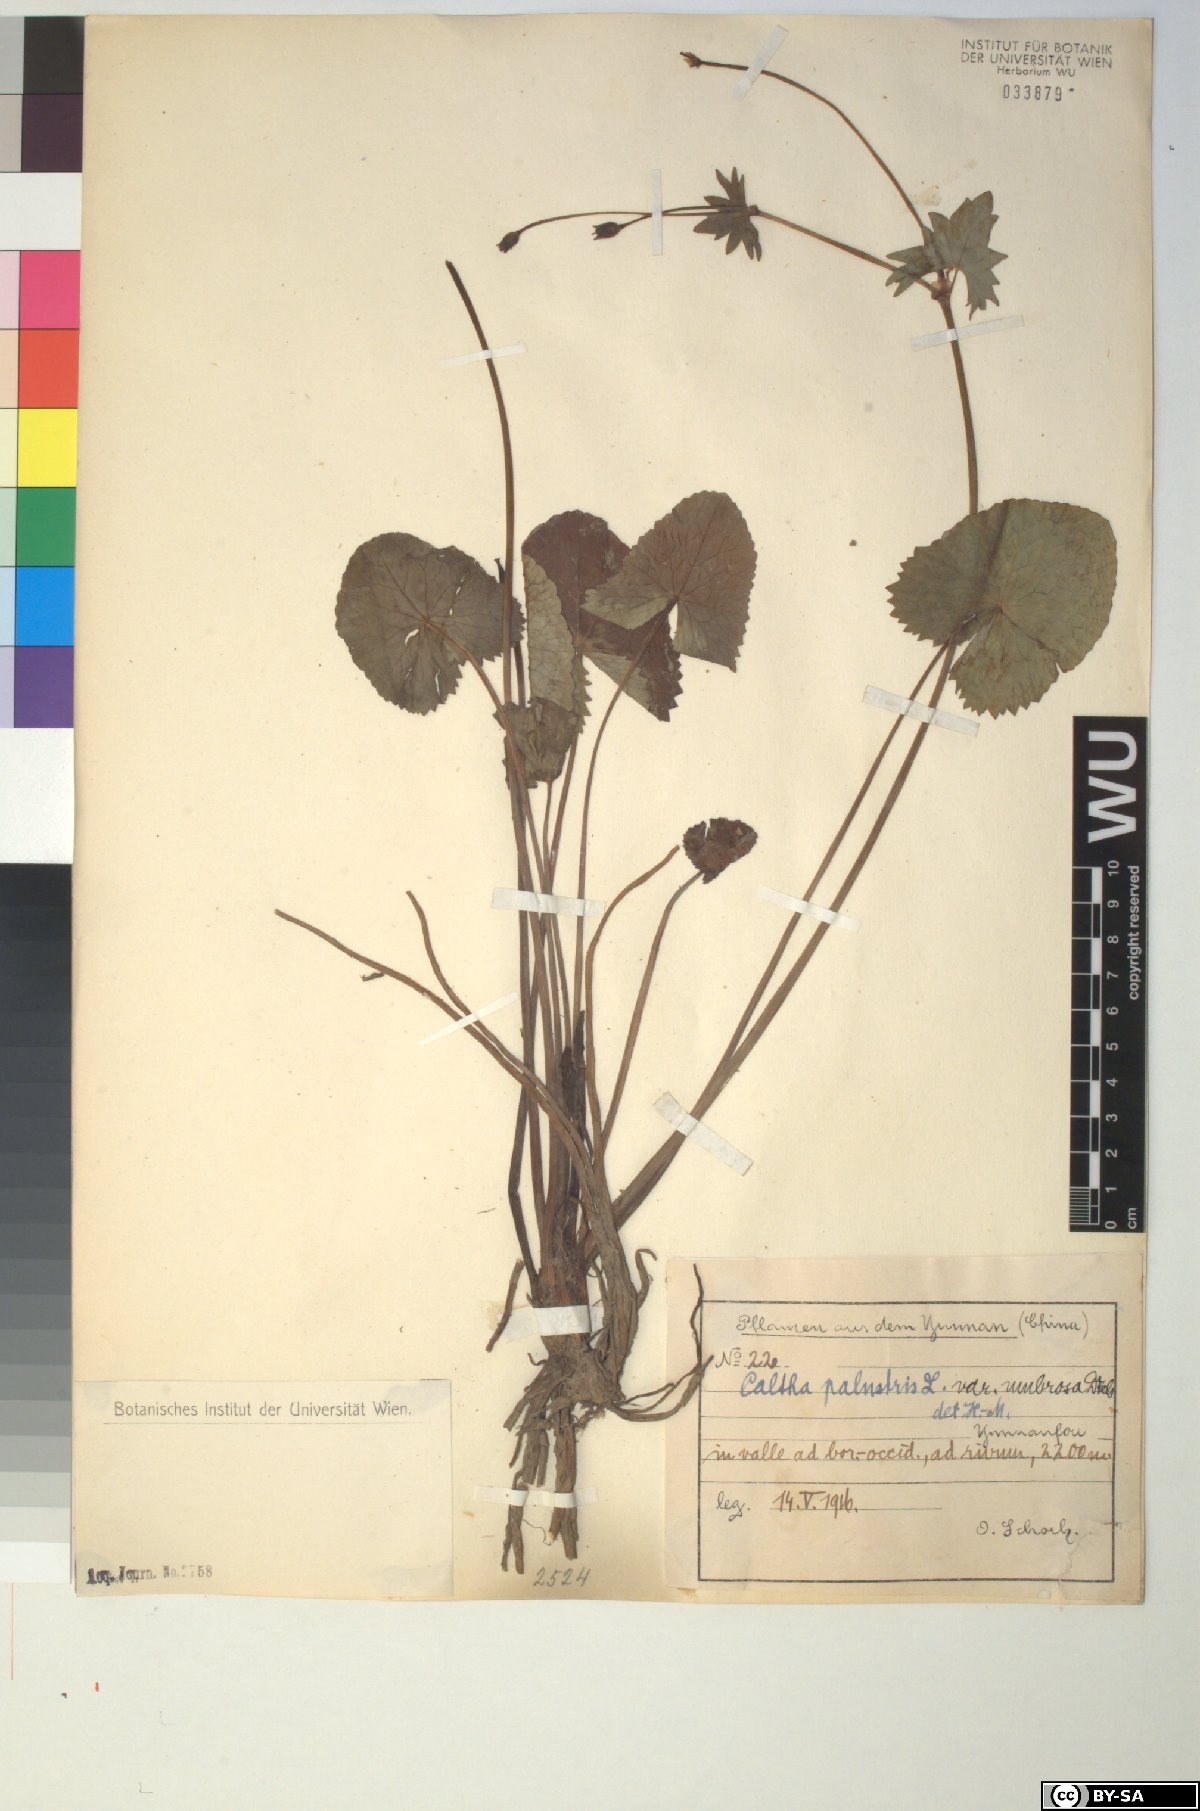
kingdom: Plantae
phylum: Tracheophyta
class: Magnoliopsida
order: Ranunculales
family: Ranunculaceae
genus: Caltha
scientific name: Caltha palustris
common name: Marsh marigold
